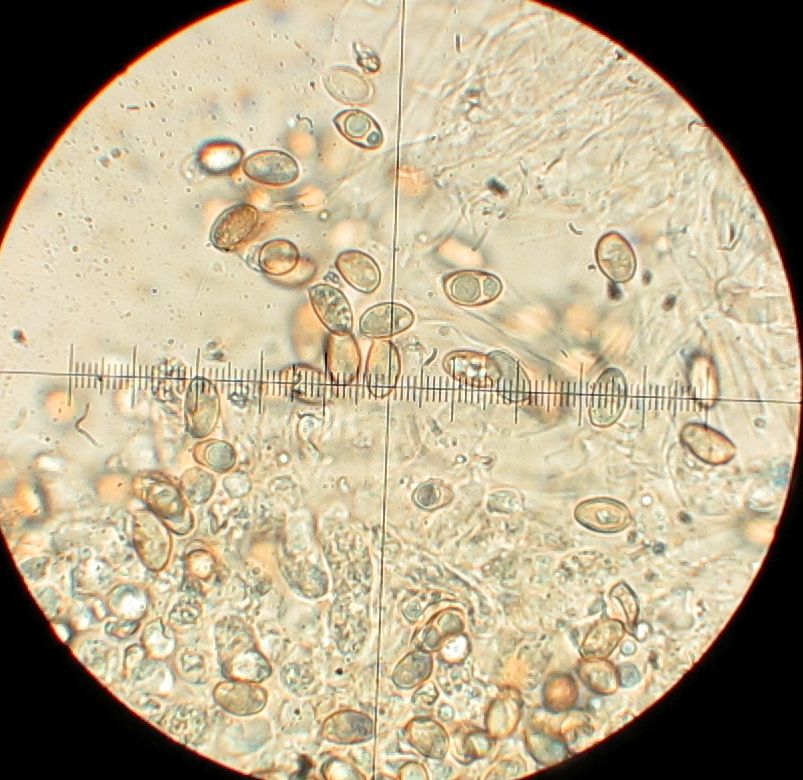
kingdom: Fungi
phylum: Basidiomycota
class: Agaricomycetes
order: Agaricales
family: Hymenogastraceae
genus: Hebeloma
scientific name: Hebeloma sordescens
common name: anløbende tåreblad
